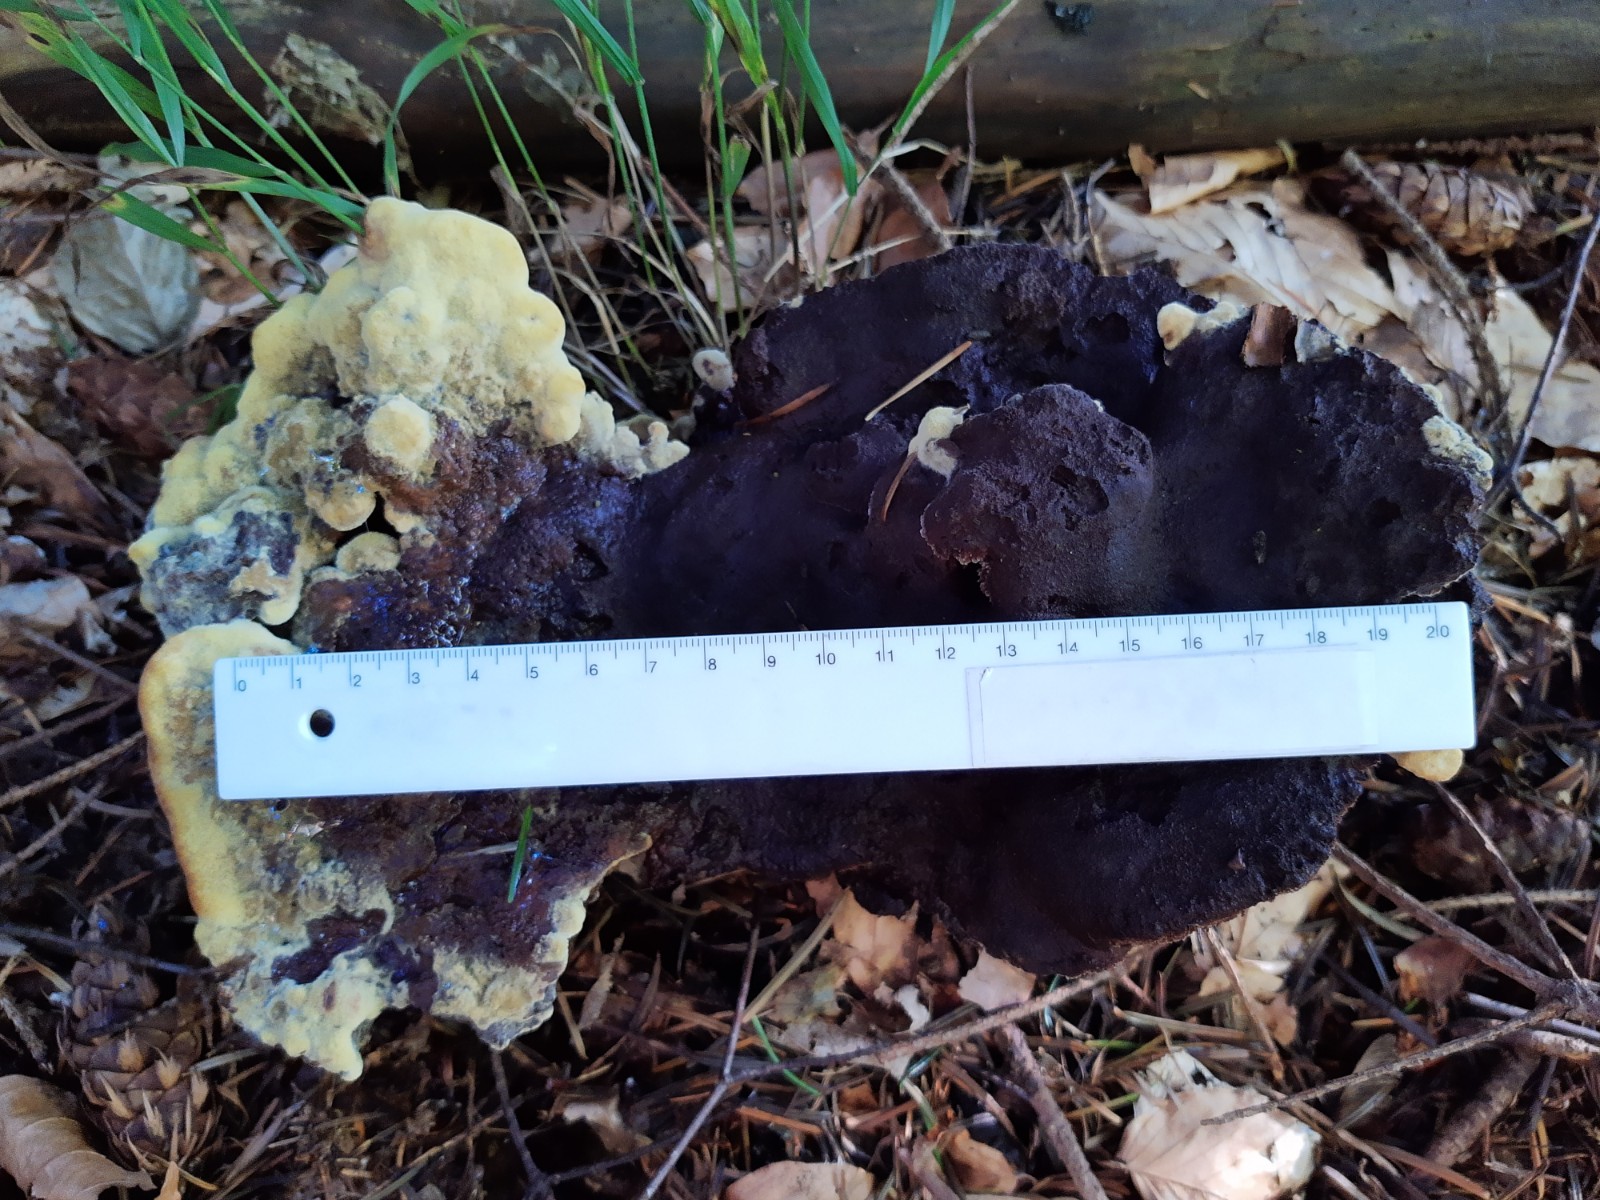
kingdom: Fungi
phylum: Basidiomycota
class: Agaricomycetes
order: Polyporales
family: Laetiporaceae
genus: Phaeolus
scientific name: Phaeolus schweinitzii
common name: brunporesvamp
